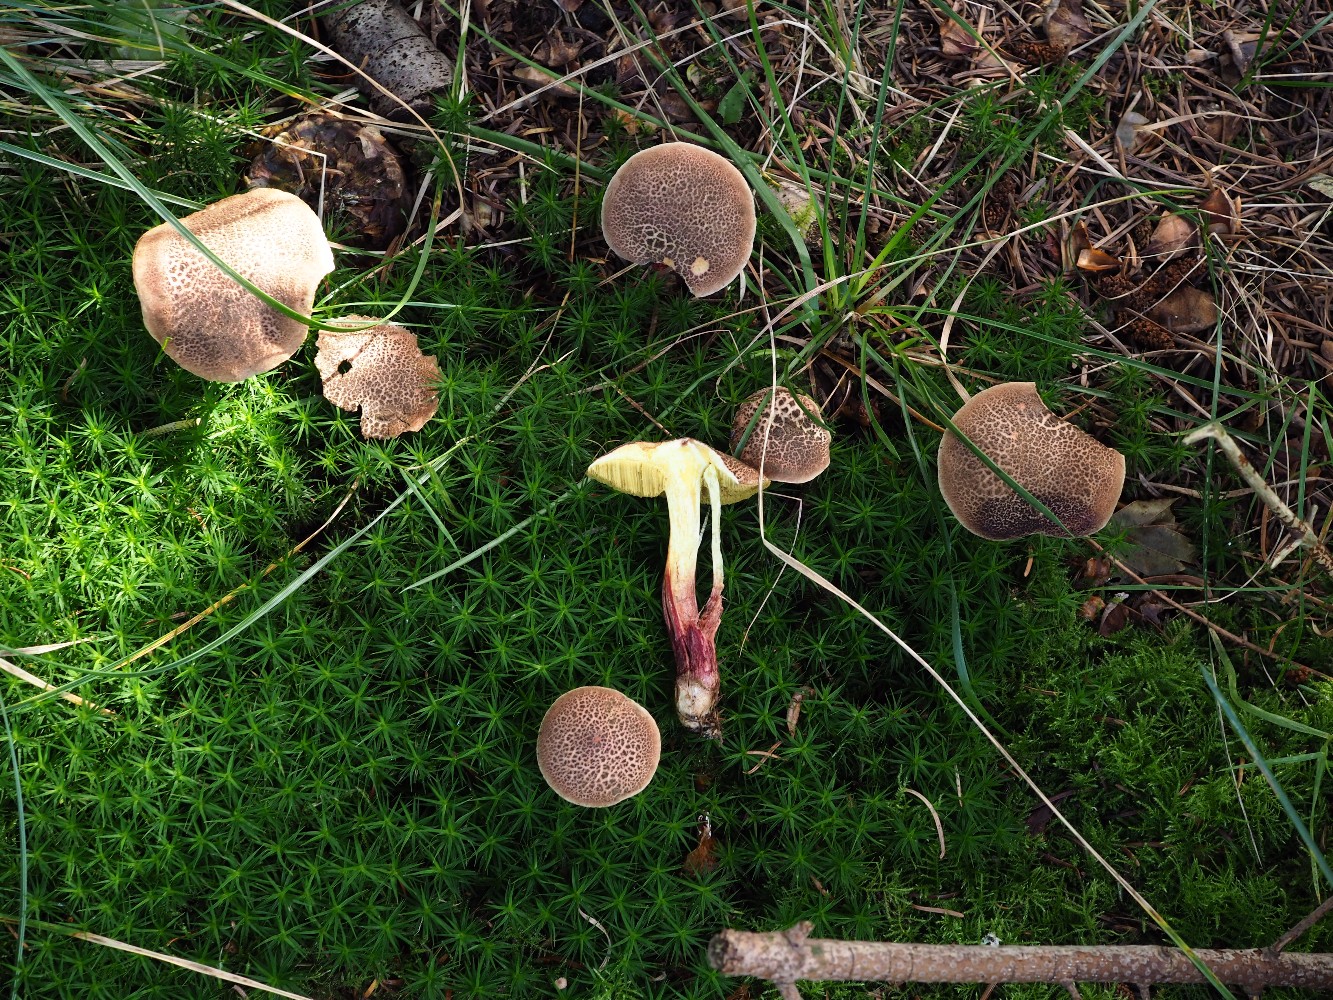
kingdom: Fungi
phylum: Basidiomycota
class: Agaricomycetes
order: Boletales
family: Boletaceae
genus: Xerocomellus
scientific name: Xerocomellus chrysenteron
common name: rødsprukken rørhat
